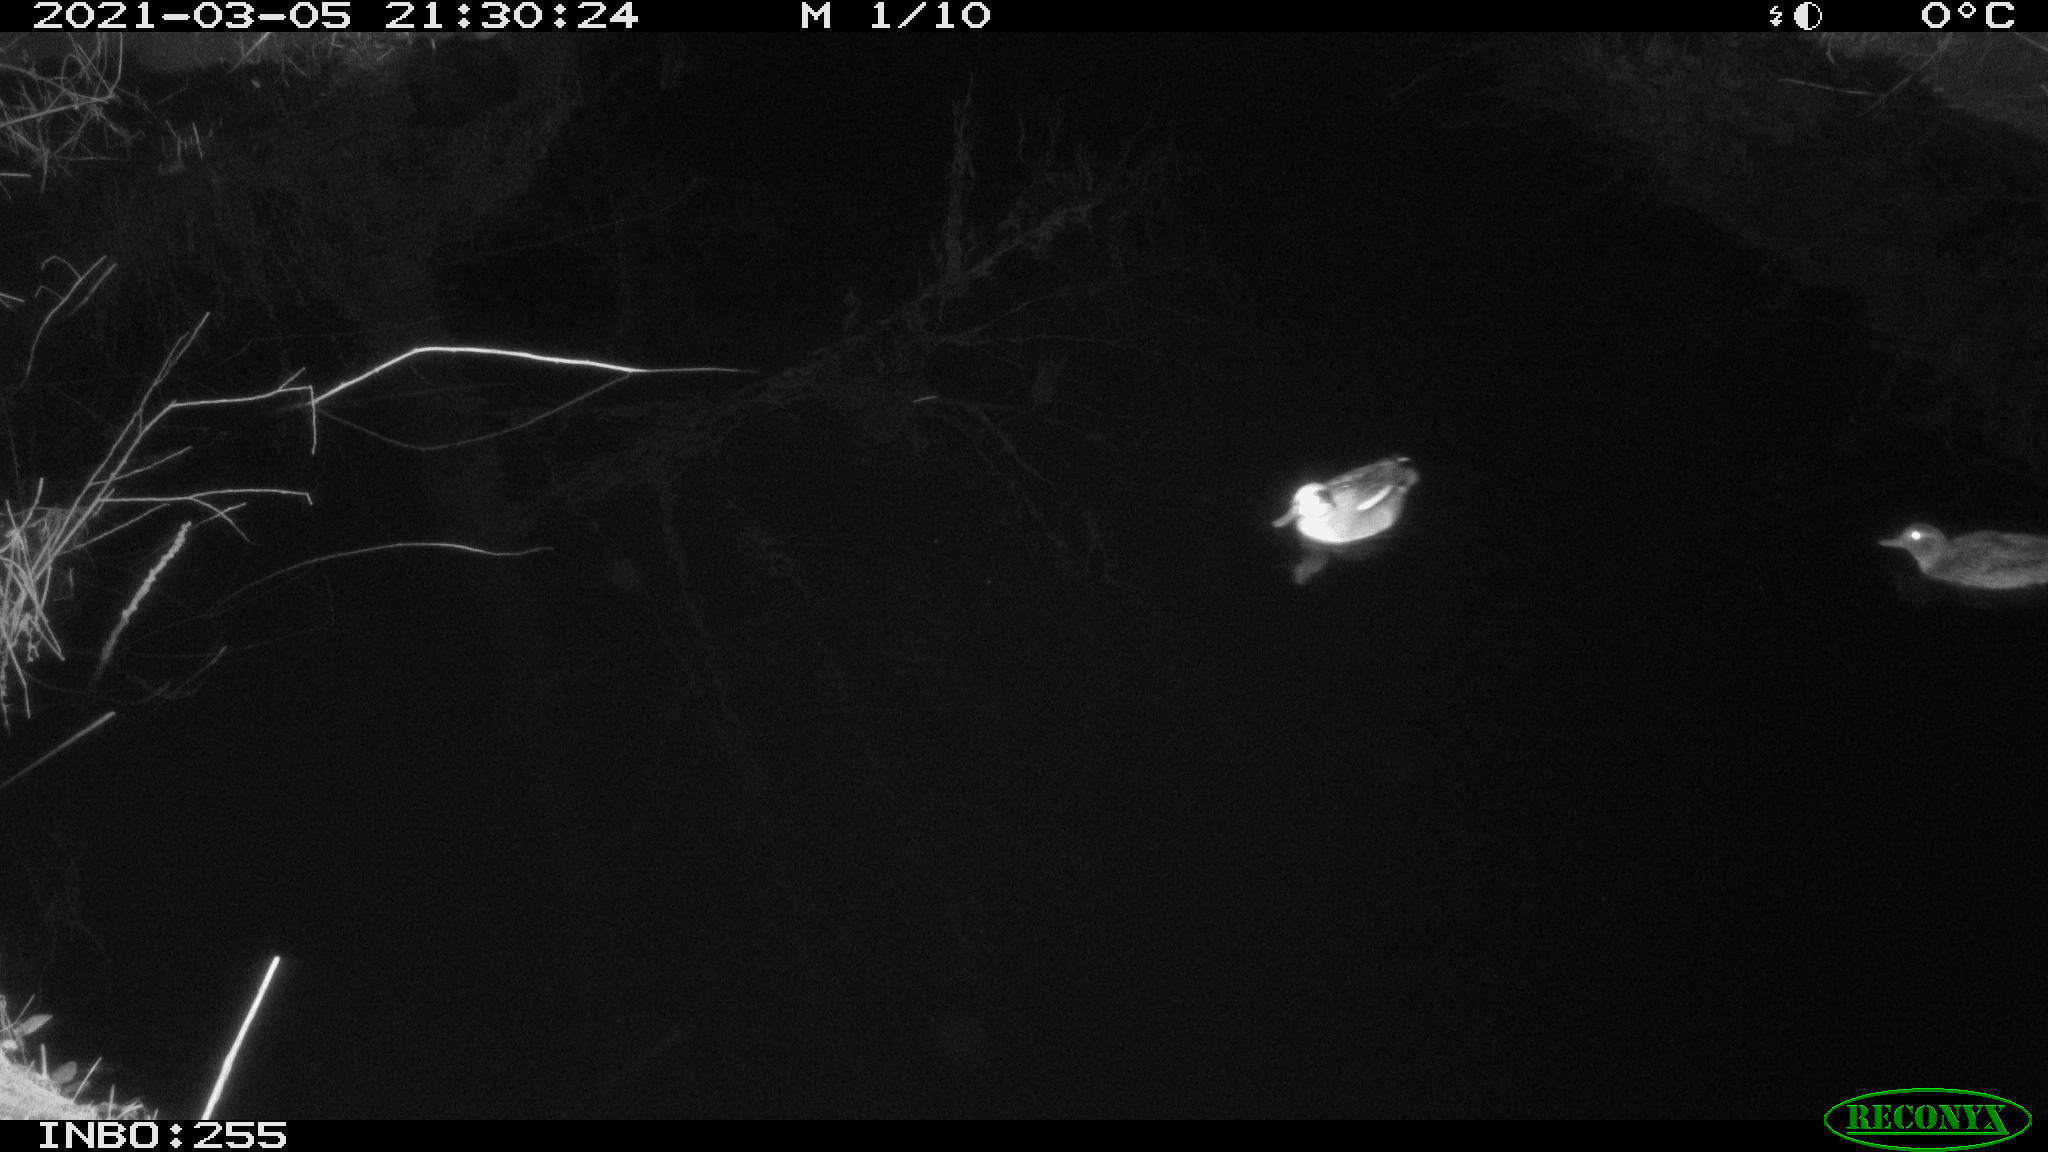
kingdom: Animalia
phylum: Chordata
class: Aves
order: Anseriformes
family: Anatidae
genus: Anas
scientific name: Anas crecca
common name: Eurasian teal
